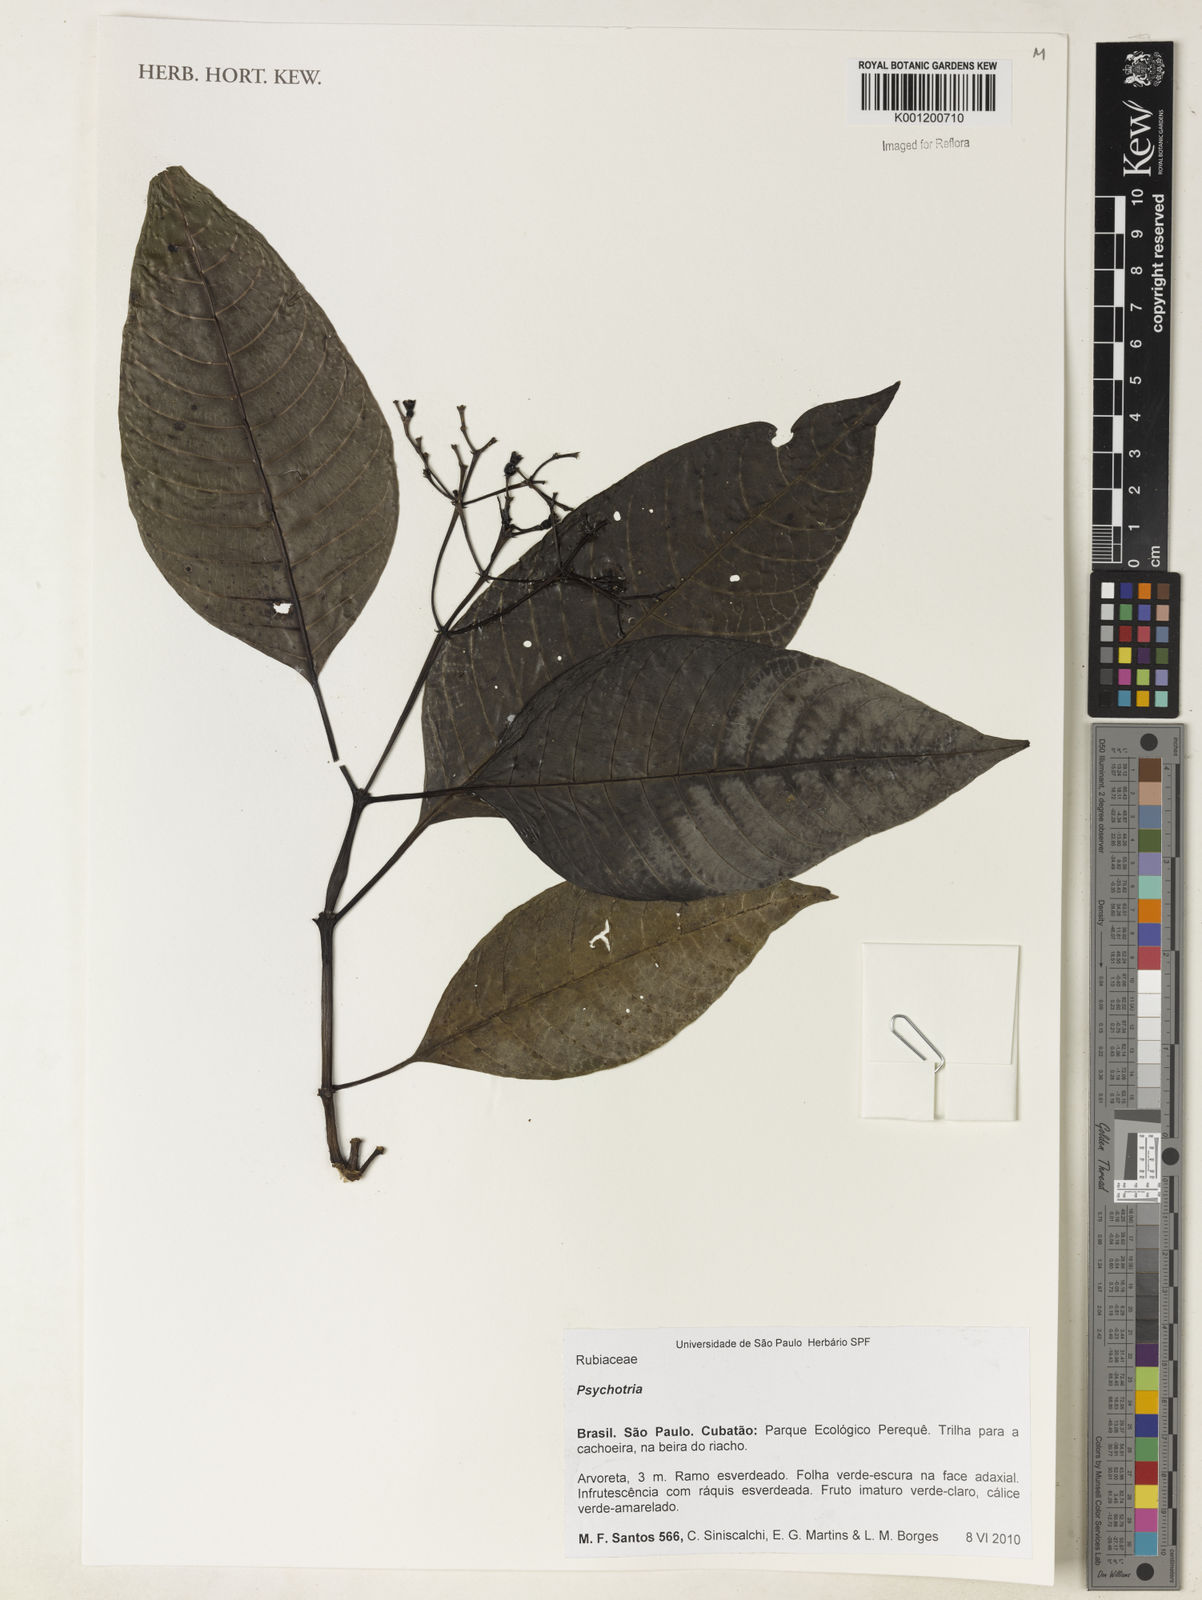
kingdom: Plantae
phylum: Tracheophyta
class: Magnoliopsida
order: Gentianales
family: Rubiaceae
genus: Psychotria
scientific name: Psychotria
